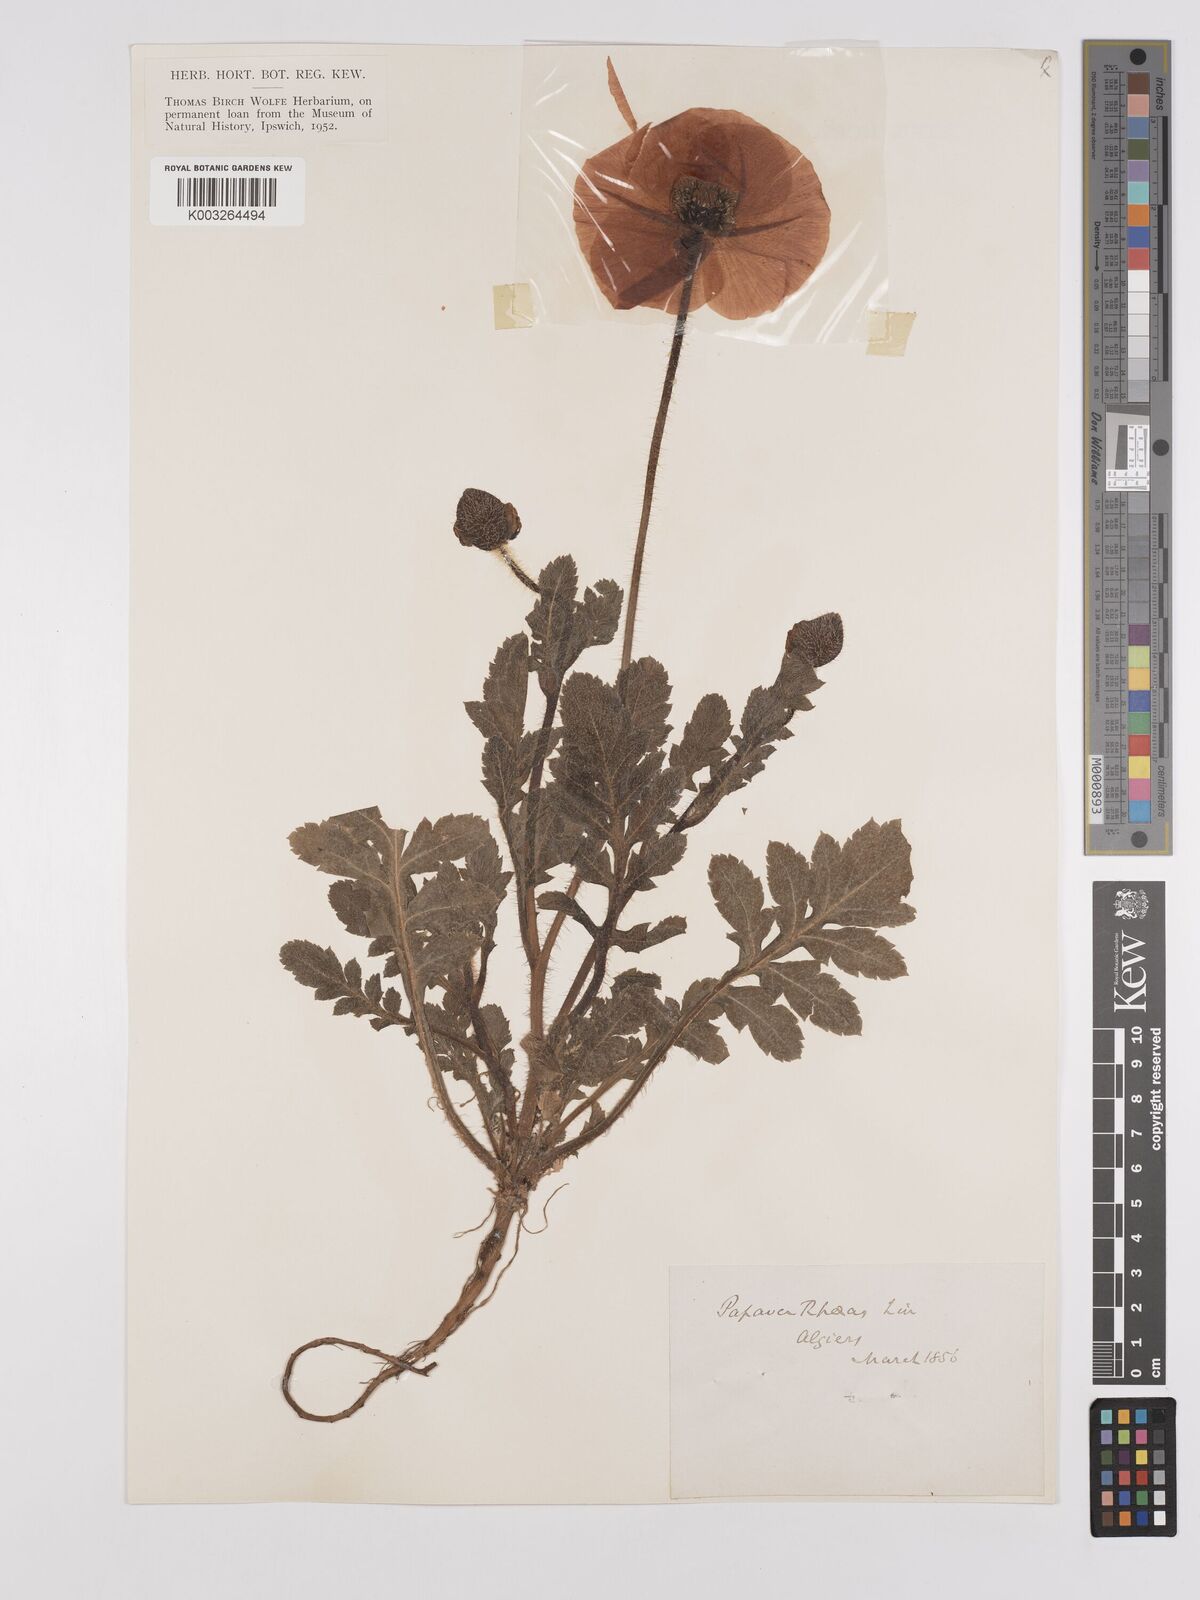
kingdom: Plantae
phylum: Tracheophyta
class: Magnoliopsida
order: Ranunculales
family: Papaveraceae
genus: Papaver
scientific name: Papaver rhoeas
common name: Corn poppy
